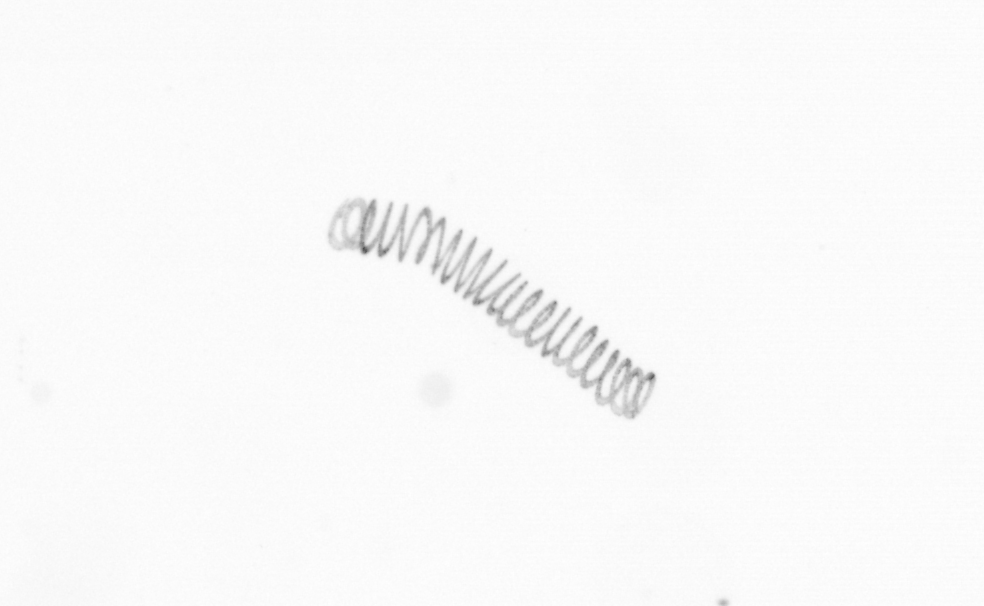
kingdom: Chromista
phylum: Ochrophyta
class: Bacillariophyceae
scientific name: Bacillariophyceae
